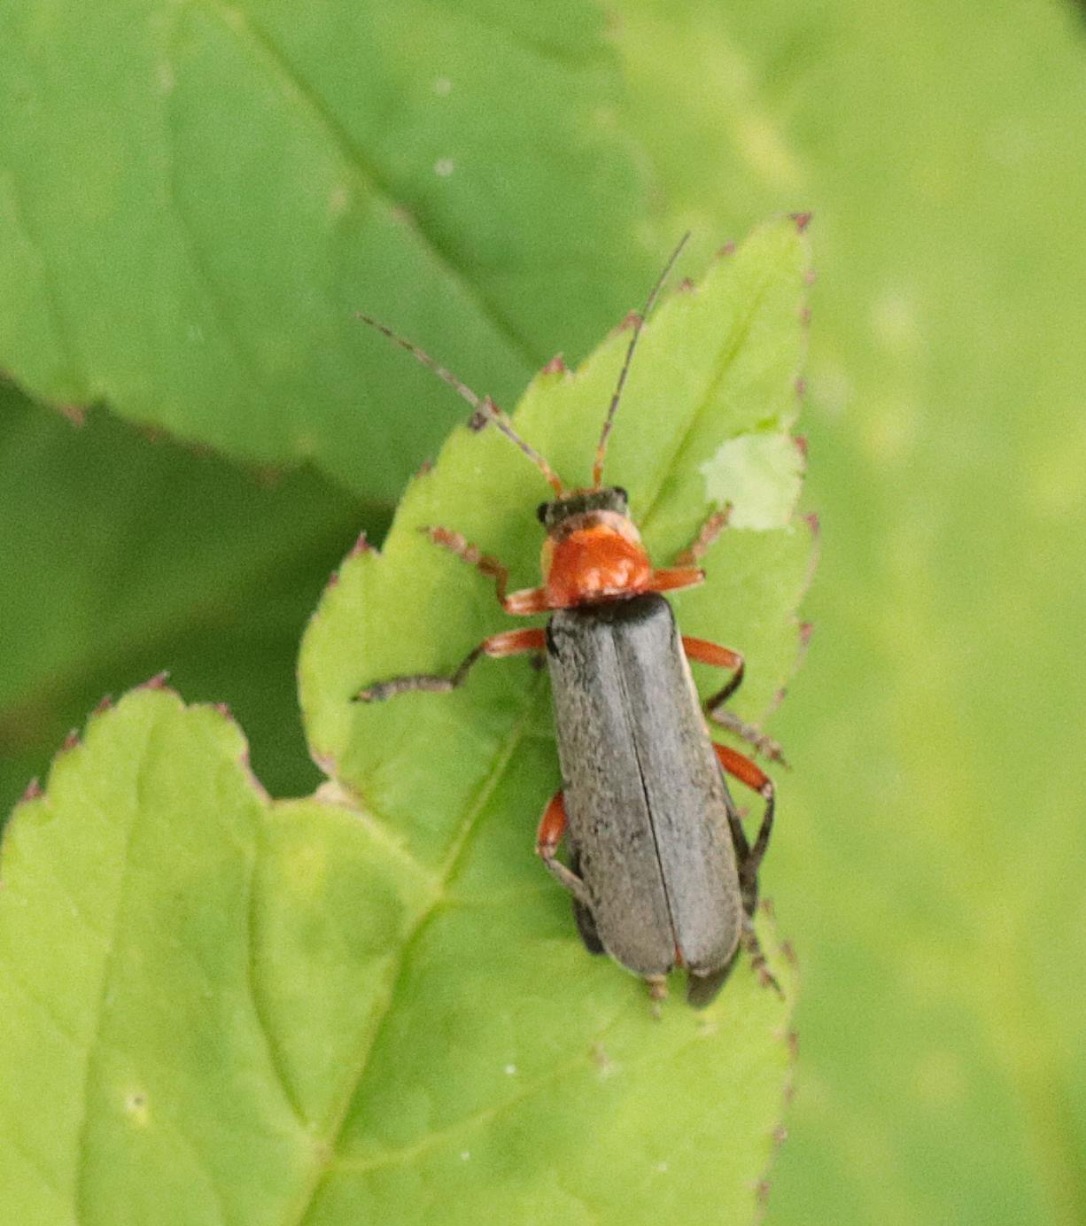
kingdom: Animalia
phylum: Arthropoda
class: Insecta
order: Coleoptera
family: Cantharidae
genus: Cantharis
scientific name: Cantharis pellucida
